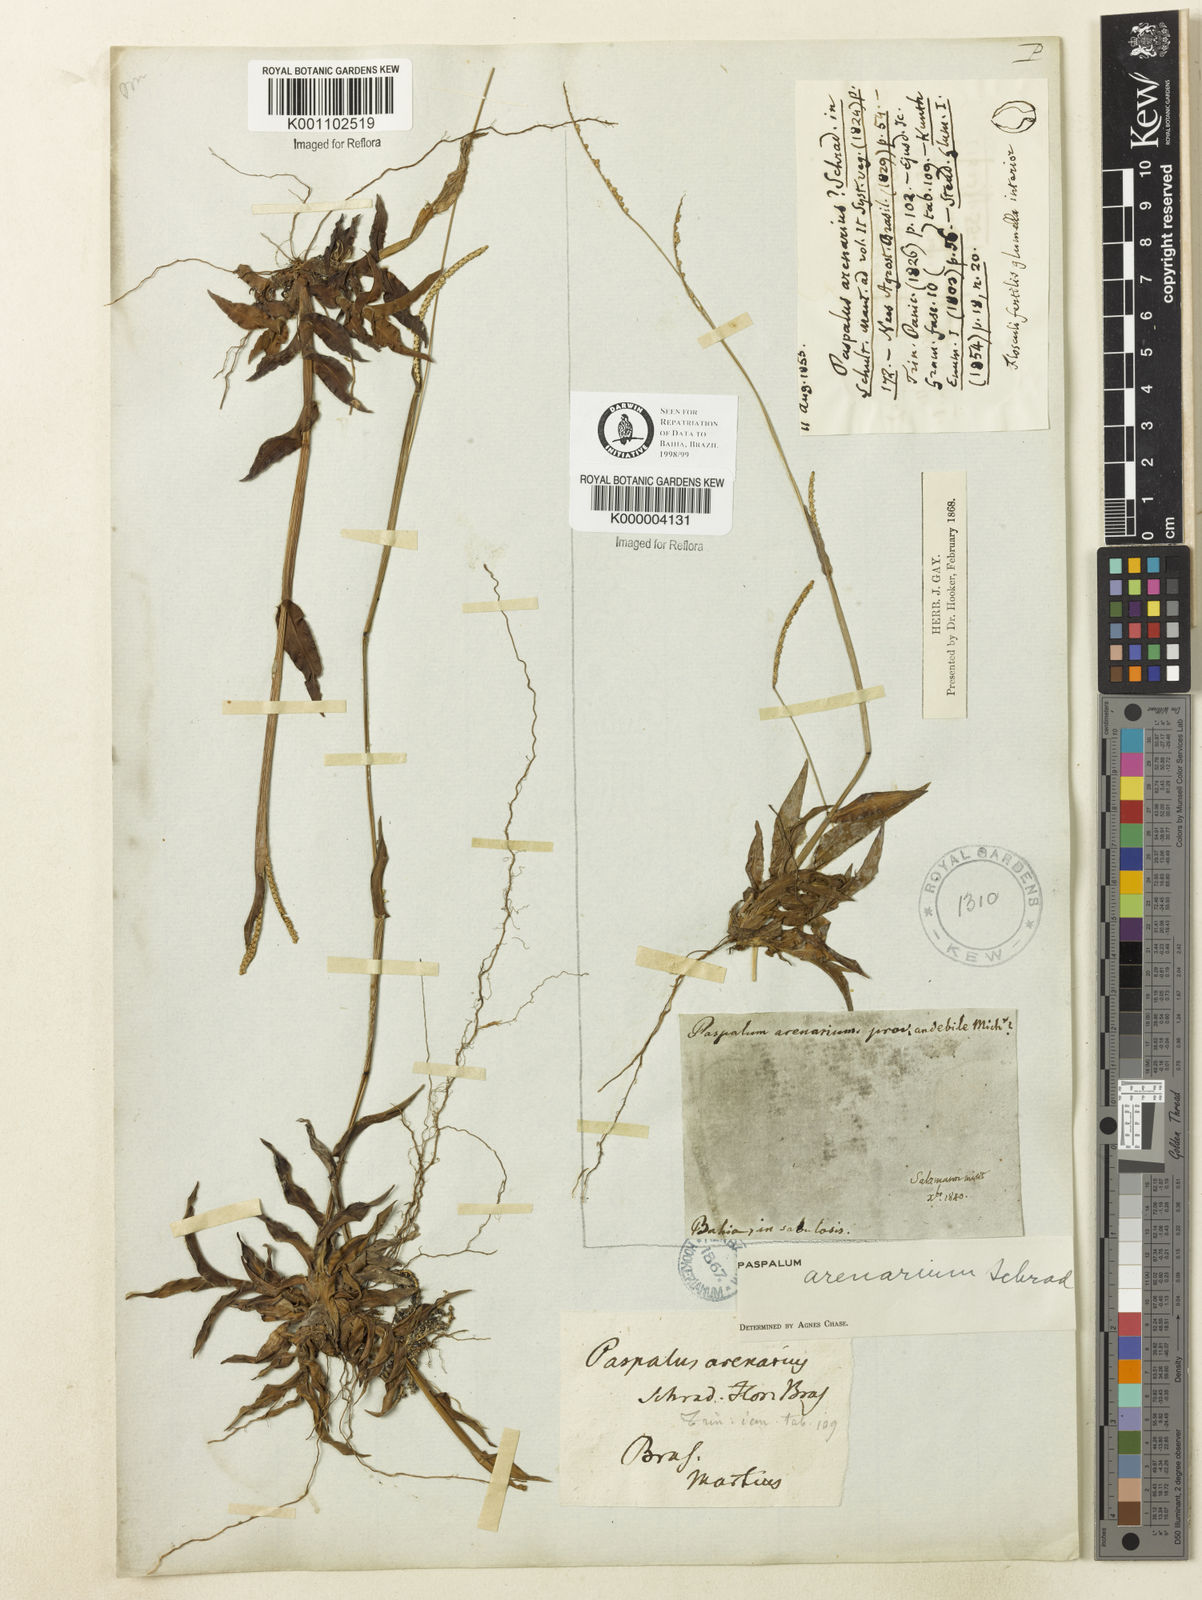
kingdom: Plantae
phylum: Tracheophyta
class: Liliopsida
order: Poales
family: Poaceae
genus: Paspalum
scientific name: Paspalum arenarium
